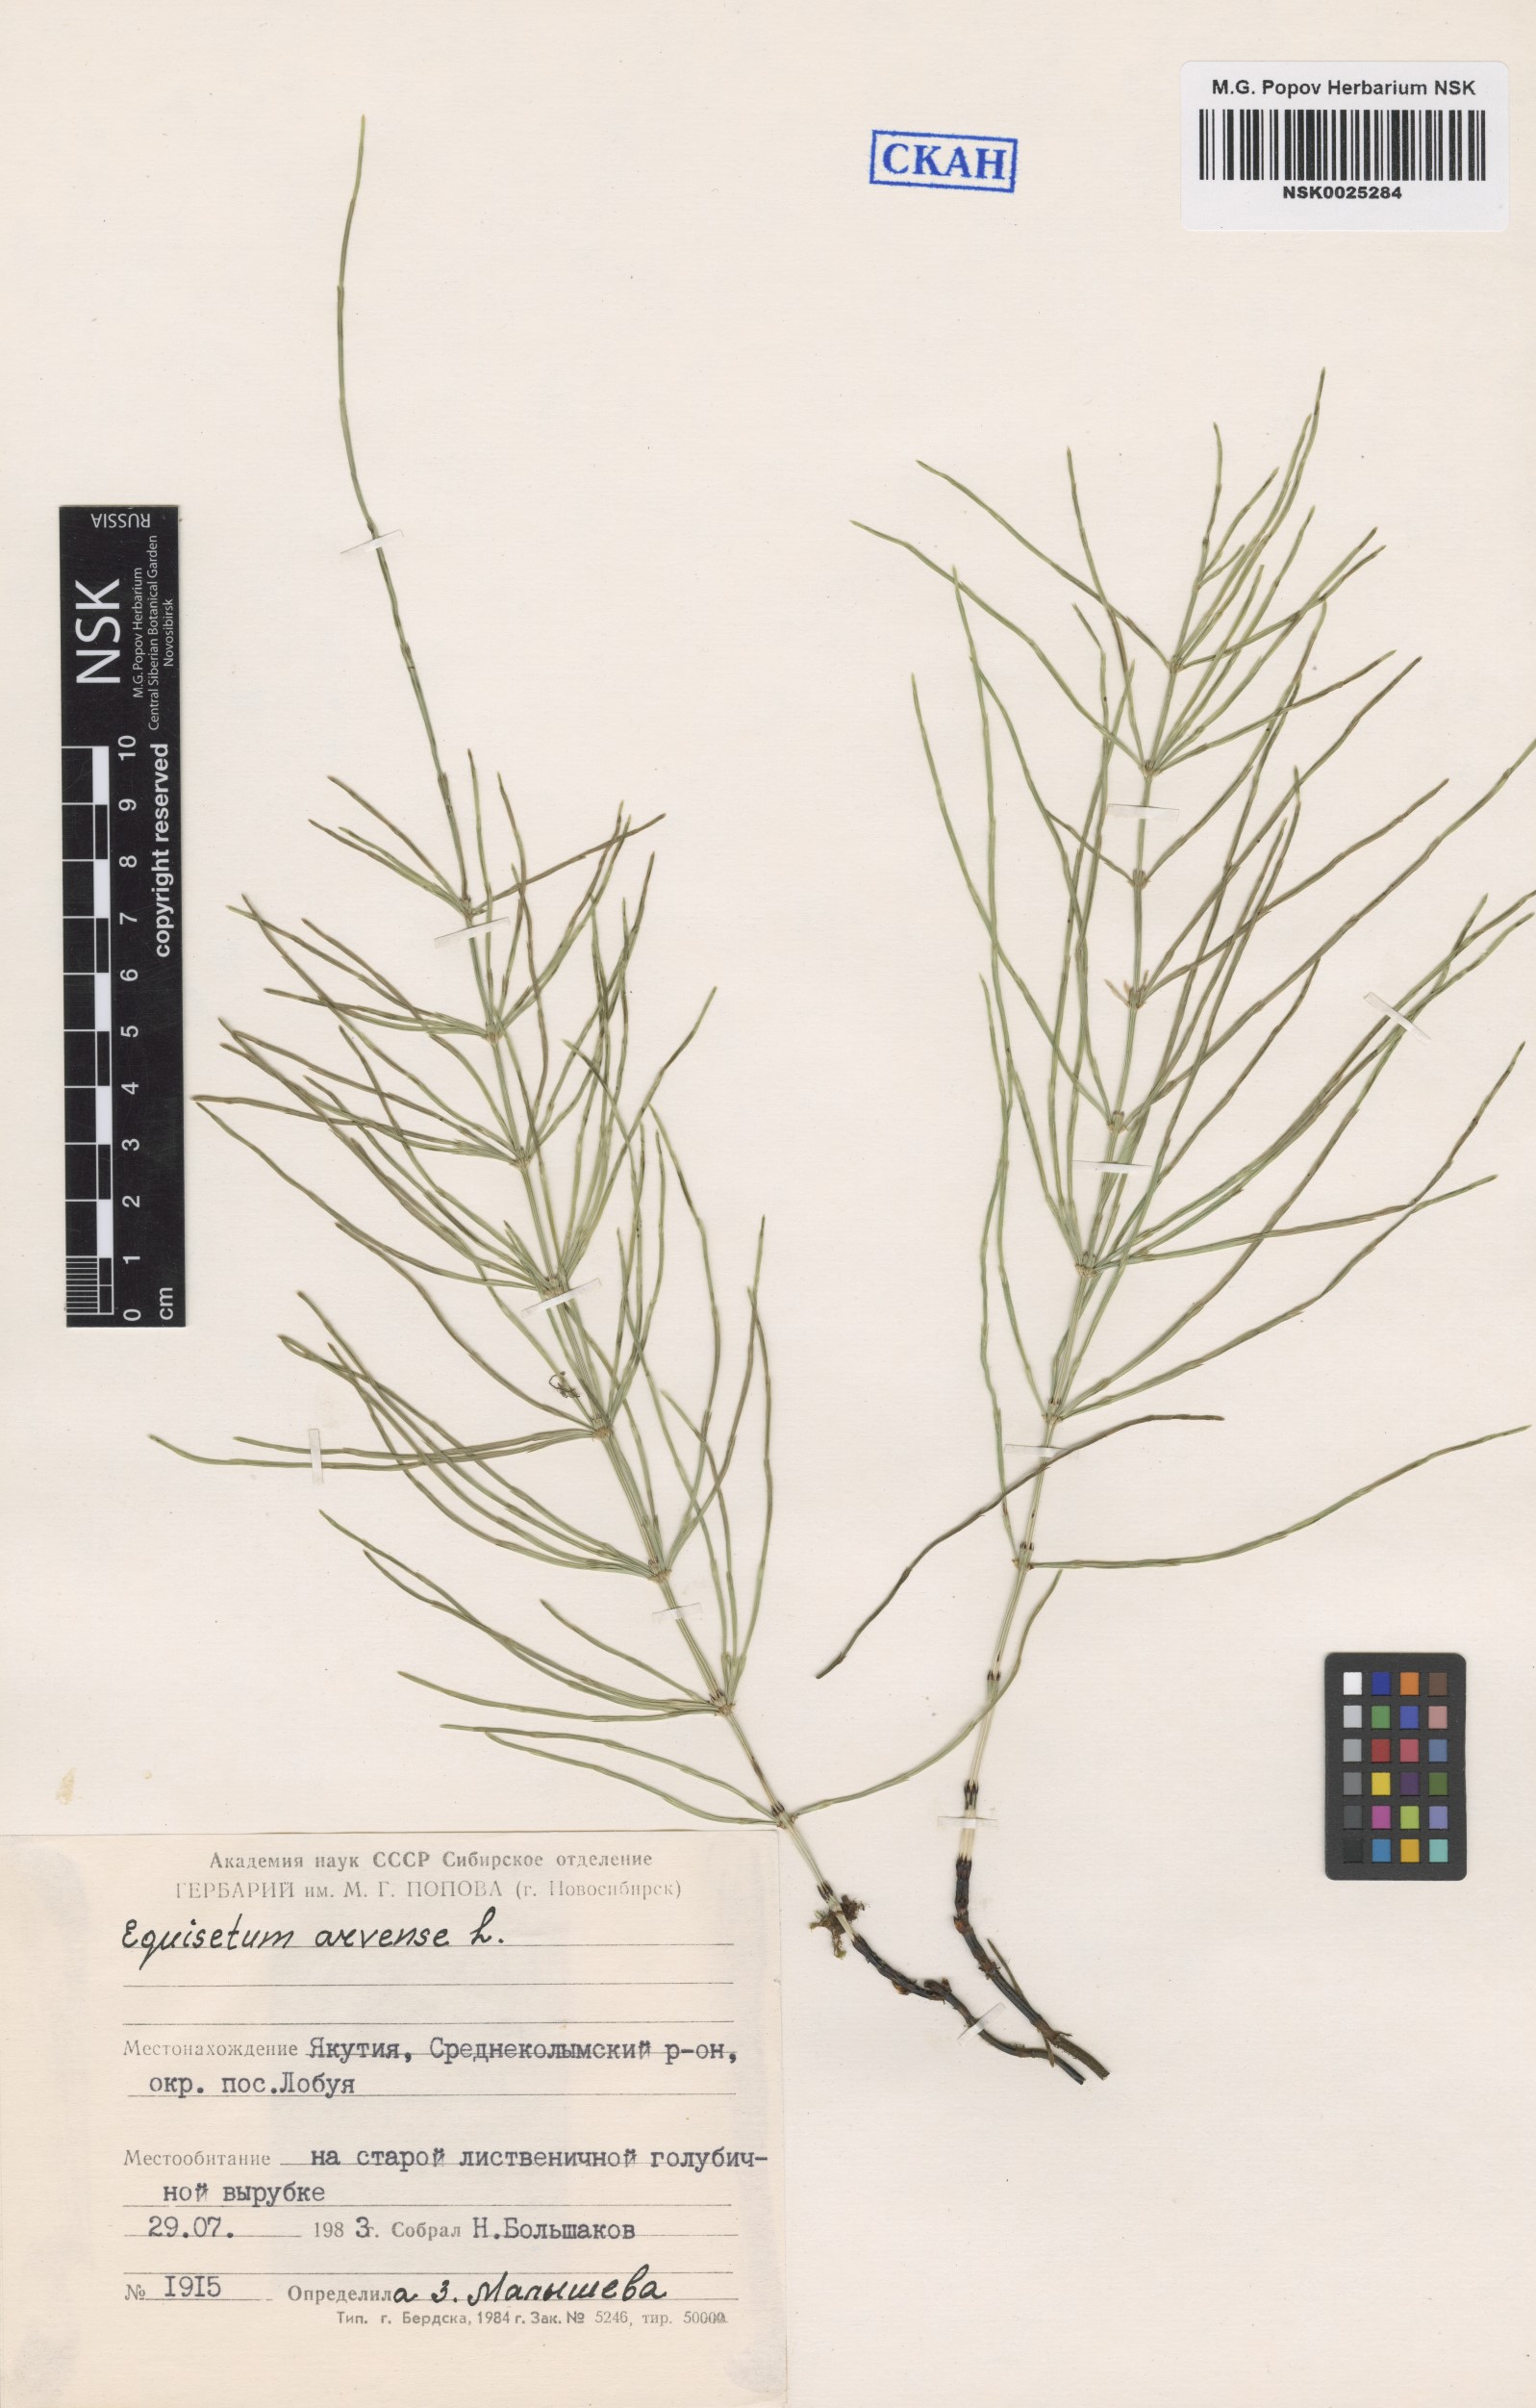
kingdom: Plantae
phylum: Tracheophyta
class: Polypodiopsida
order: Equisetales
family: Equisetaceae
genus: Equisetum
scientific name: Equisetum arvense
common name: Field horsetail
